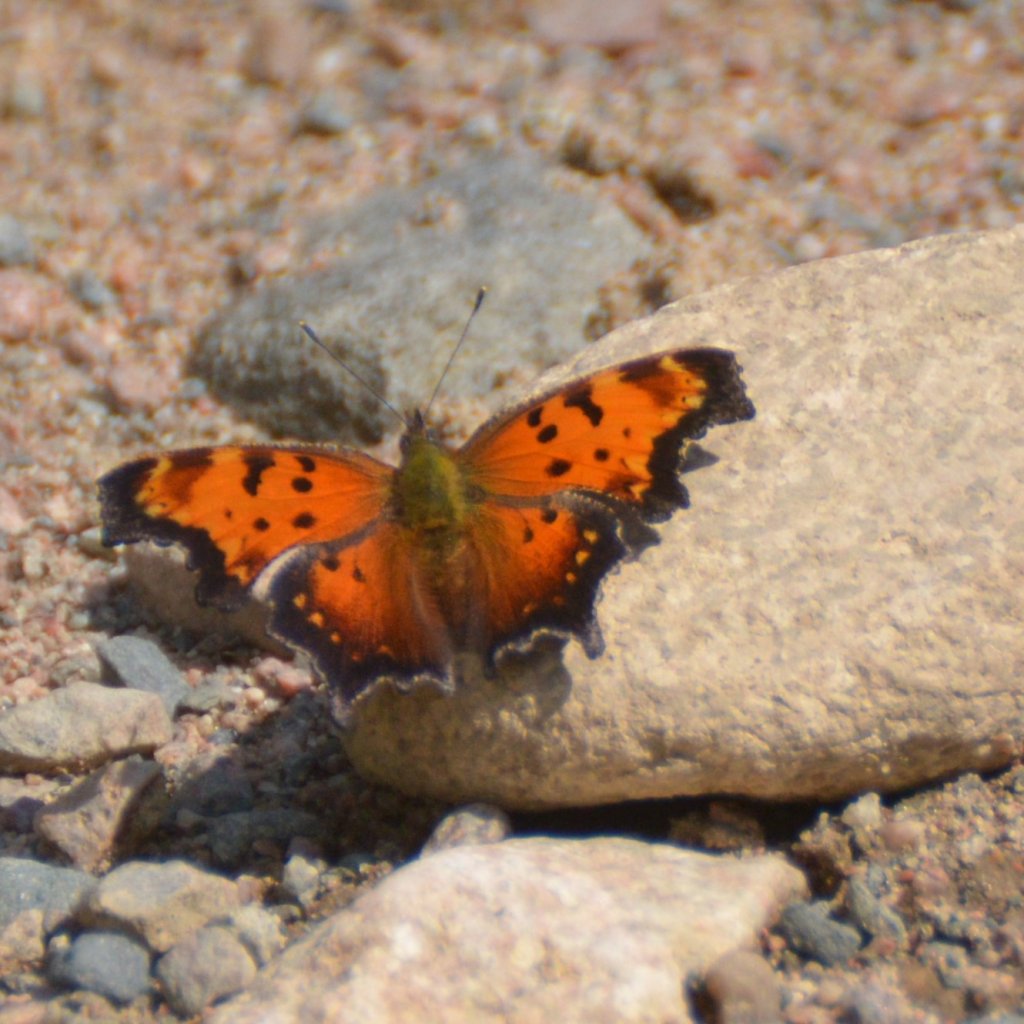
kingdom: Animalia
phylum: Arthropoda
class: Insecta
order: Lepidoptera
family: Nymphalidae
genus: Polygonia
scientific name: Polygonia progne
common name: Gray Comma
